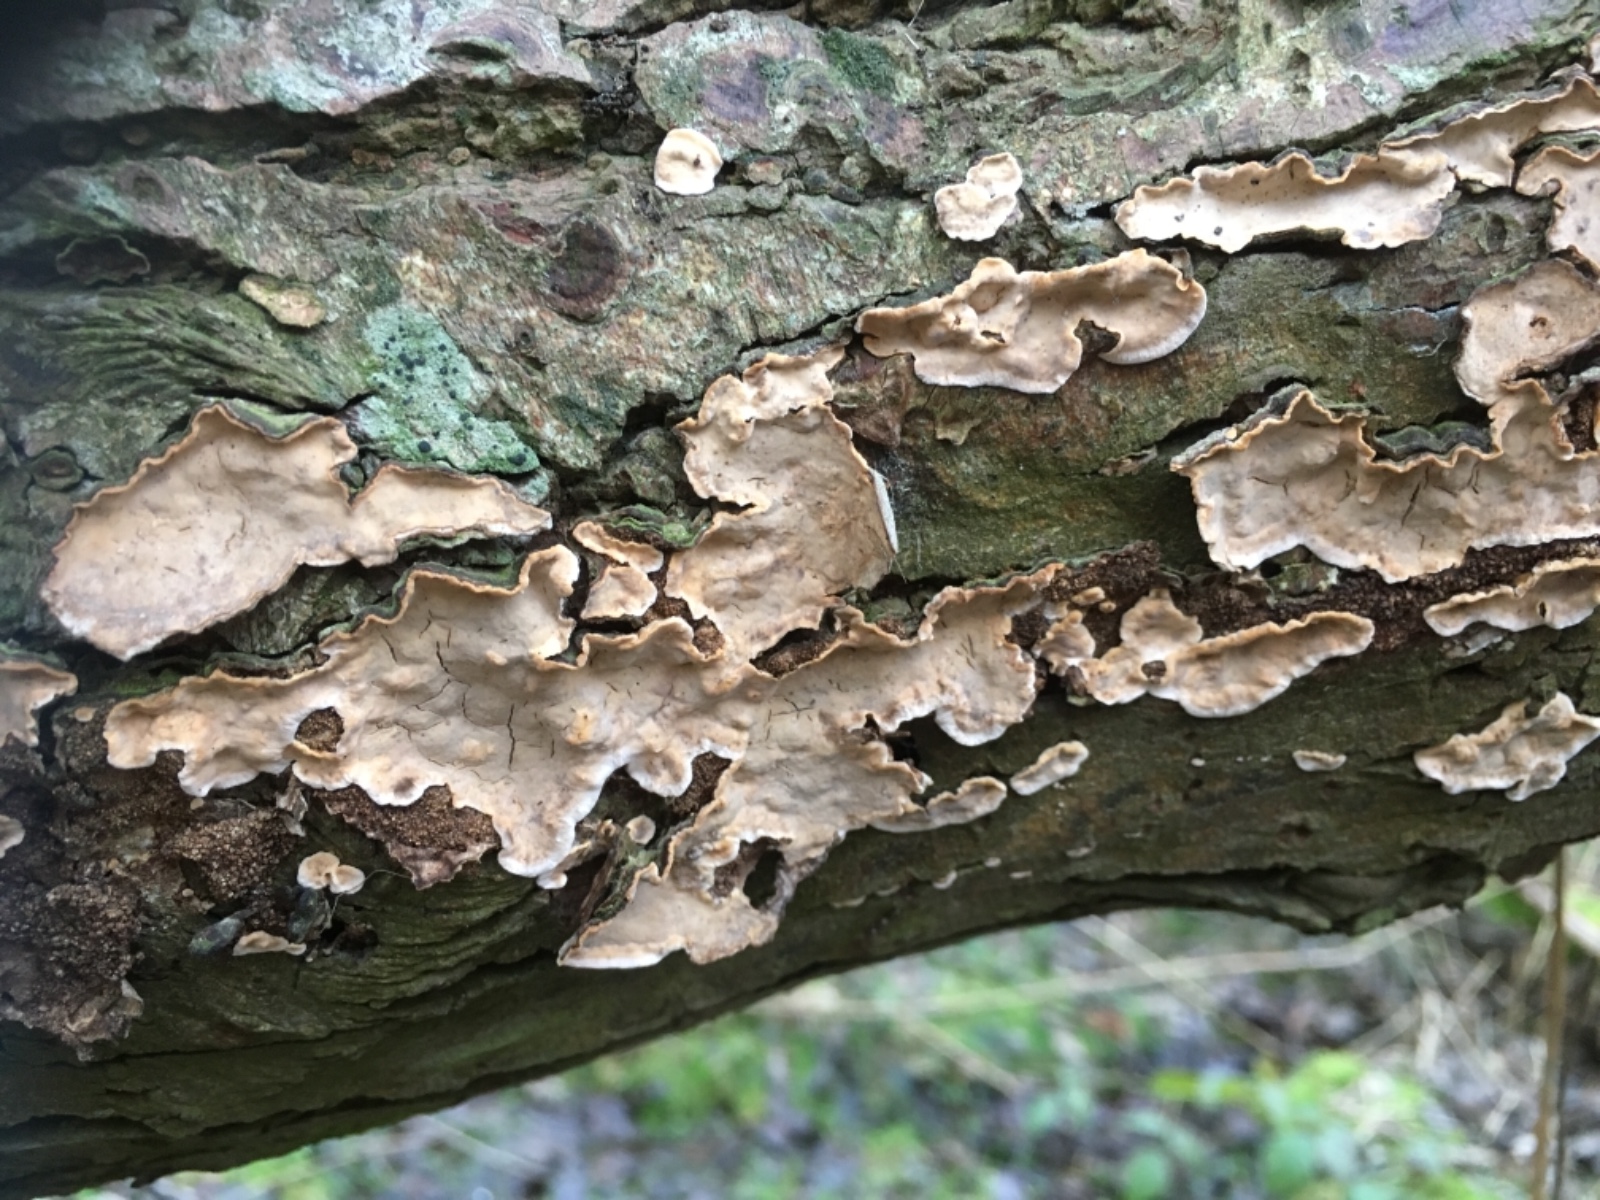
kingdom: Fungi
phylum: Basidiomycota
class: Agaricomycetes
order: Russulales
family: Stereaceae
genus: Stereum
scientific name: Stereum rugosum
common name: rynket lædersvamp
